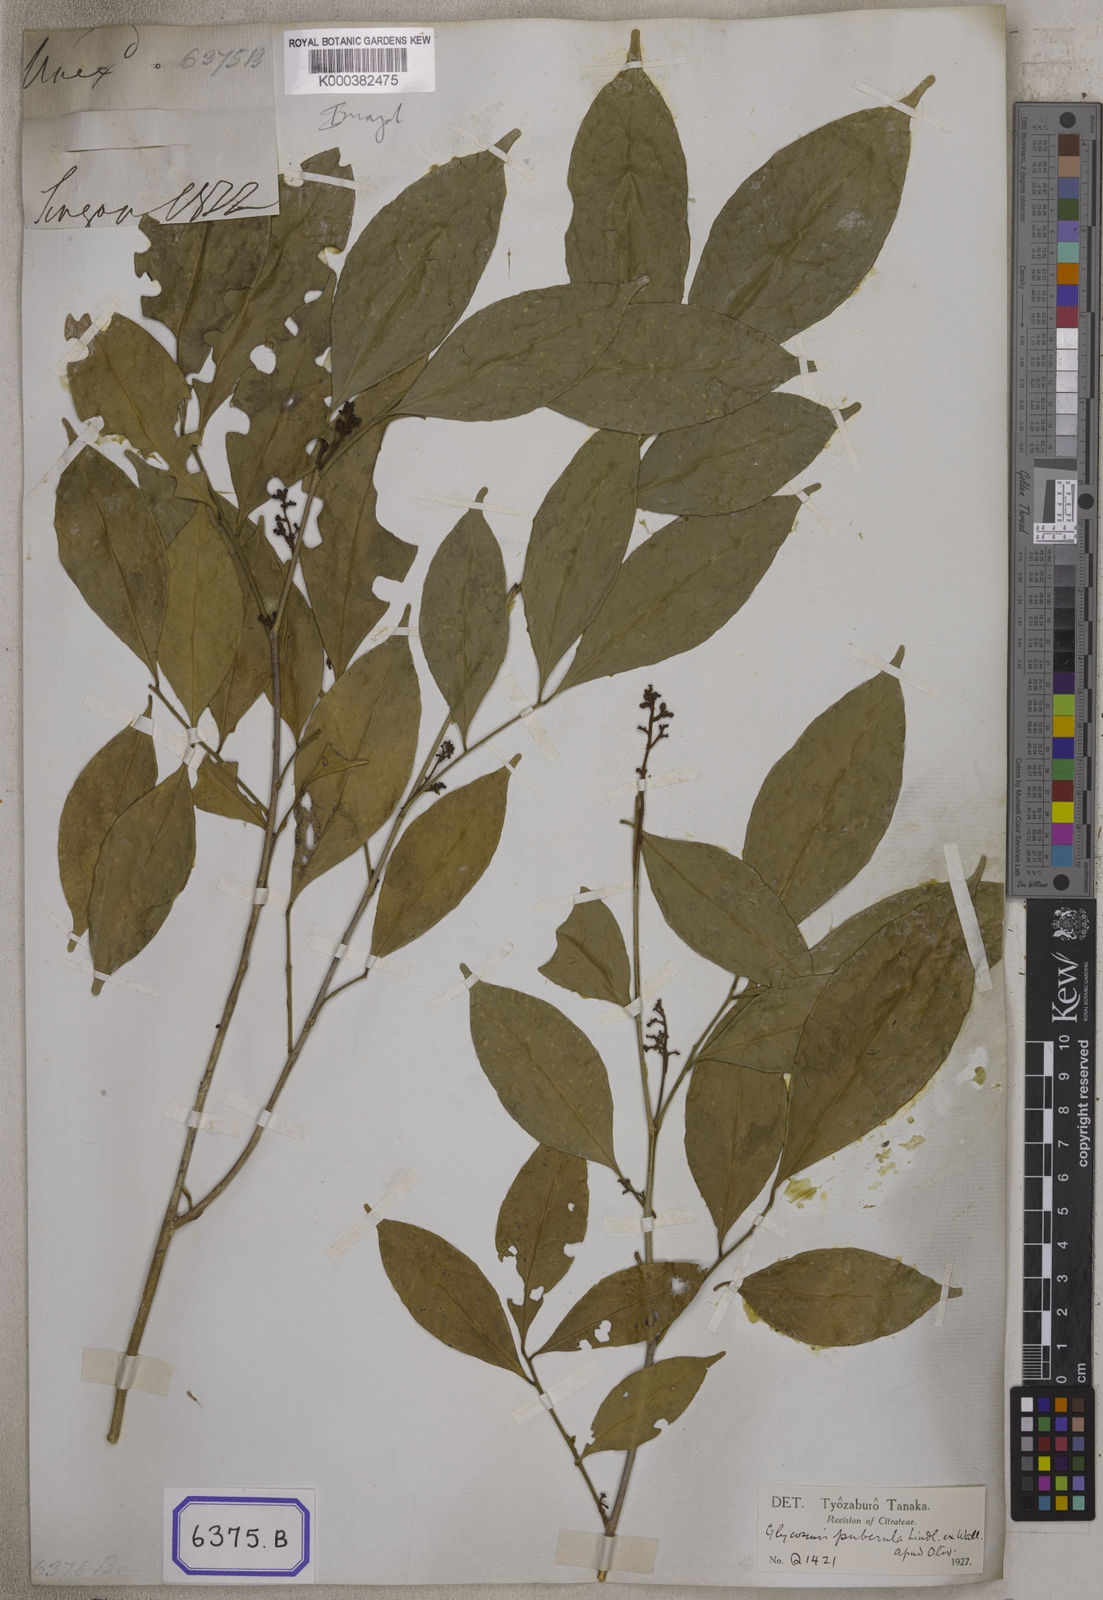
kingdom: Plantae
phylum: Tracheophyta
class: Magnoliopsida
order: Sapindales
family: Rutaceae
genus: Glycosmis
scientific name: Glycosmis
